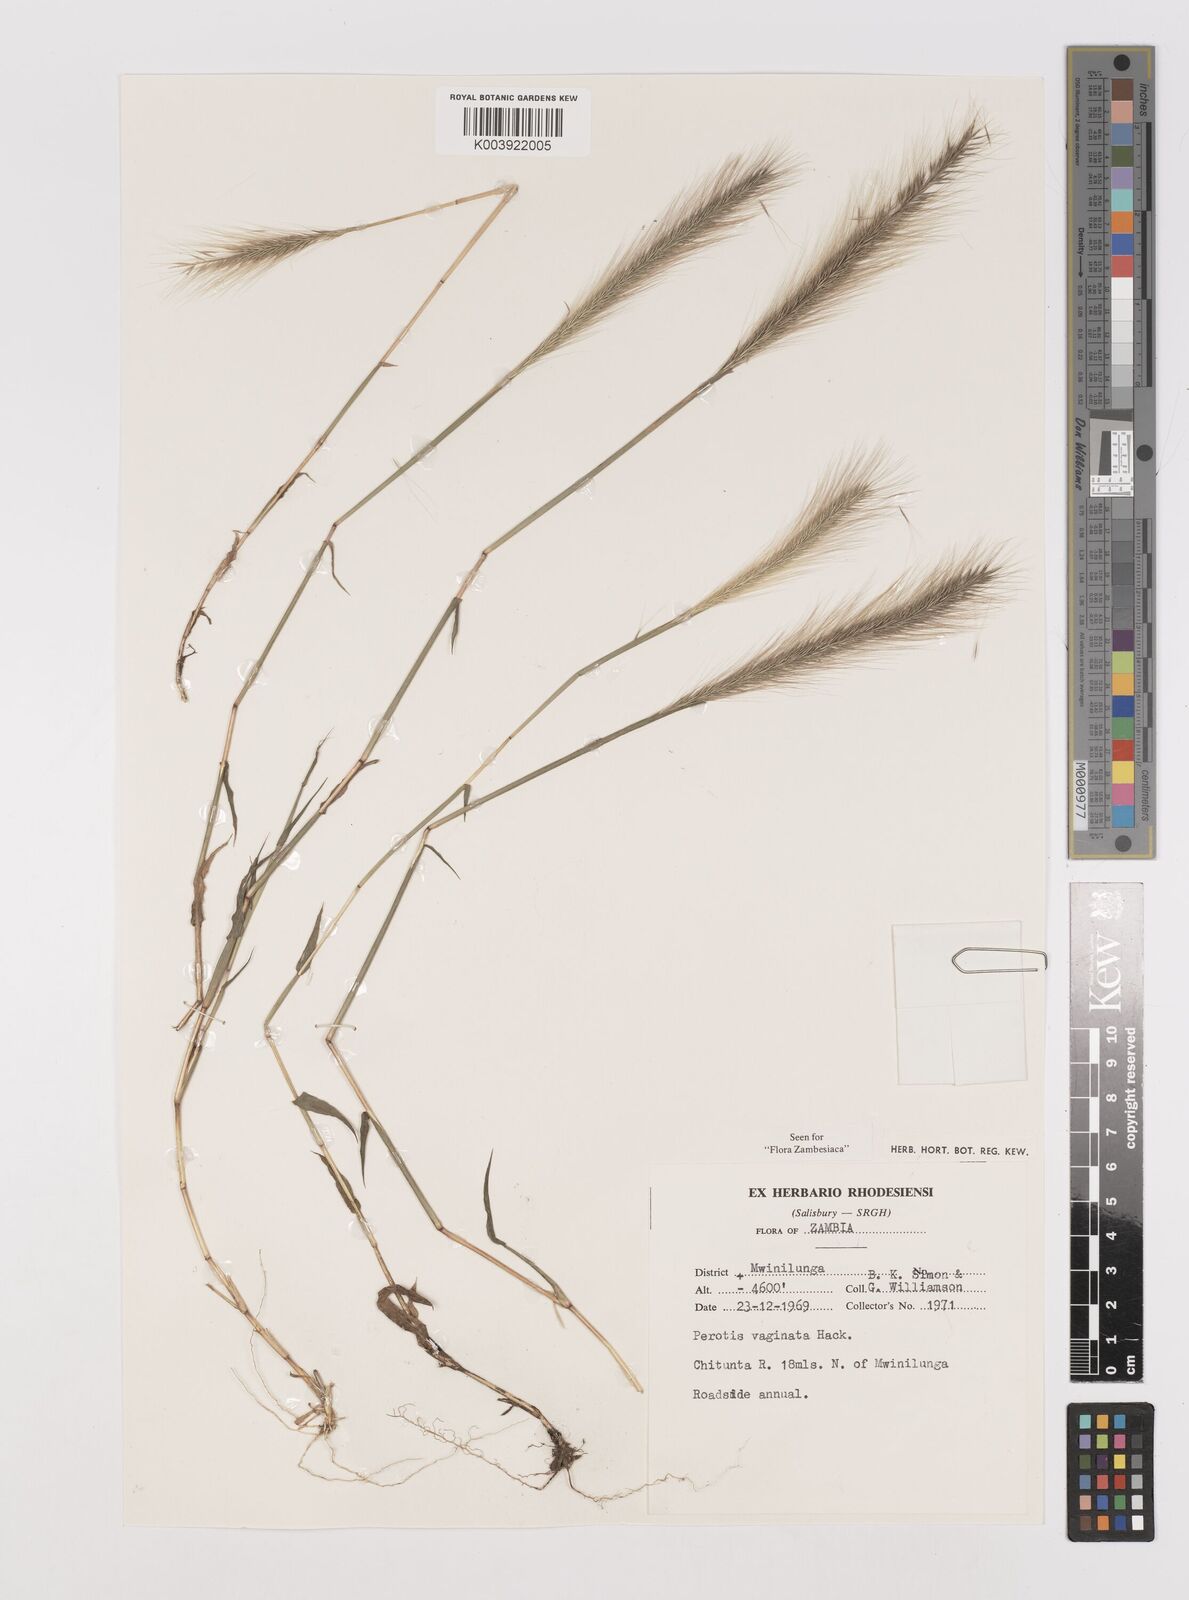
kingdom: Plantae
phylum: Tracheophyta
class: Liliopsida
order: Poales
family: Poaceae
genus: Perotis
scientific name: Perotis vaginata
